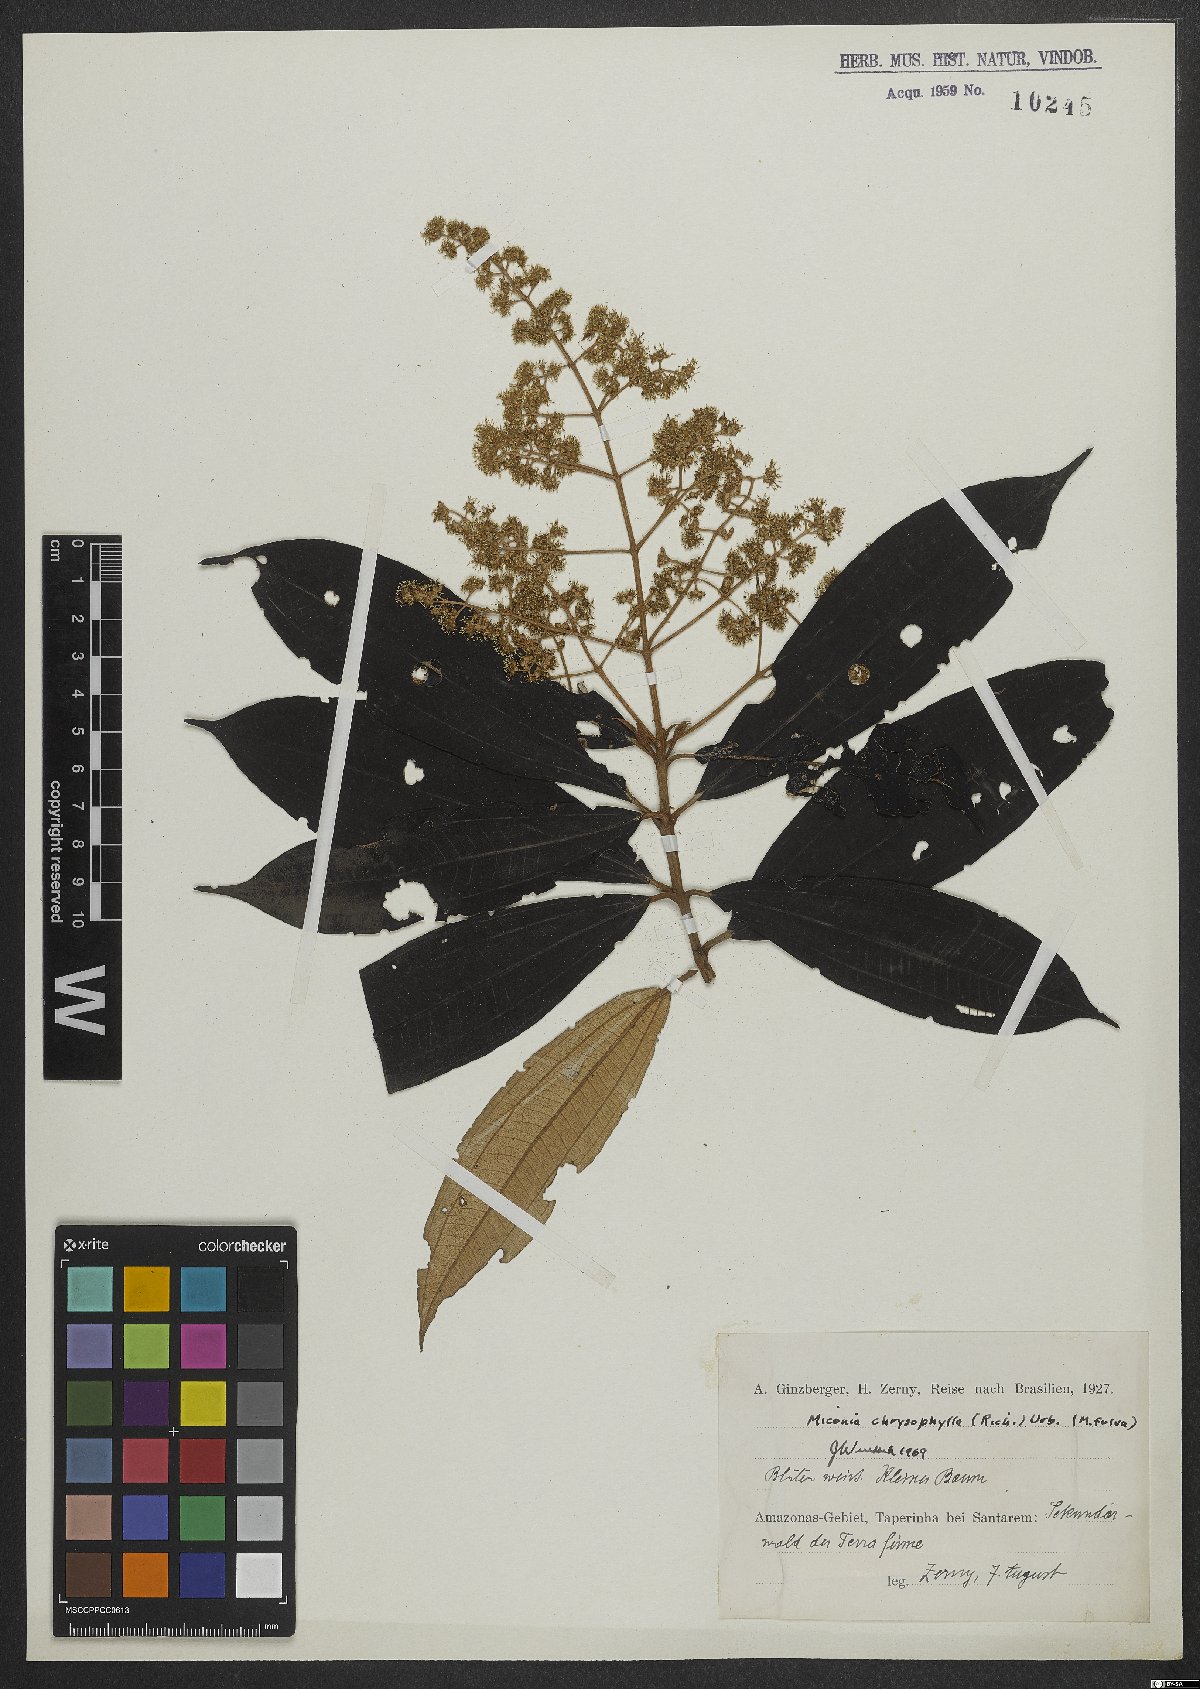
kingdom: Plantae
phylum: Tracheophyta
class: Magnoliopsida
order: Myrtales
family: Melastomataceae
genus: Miconia
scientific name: Miconia chrysophylla
